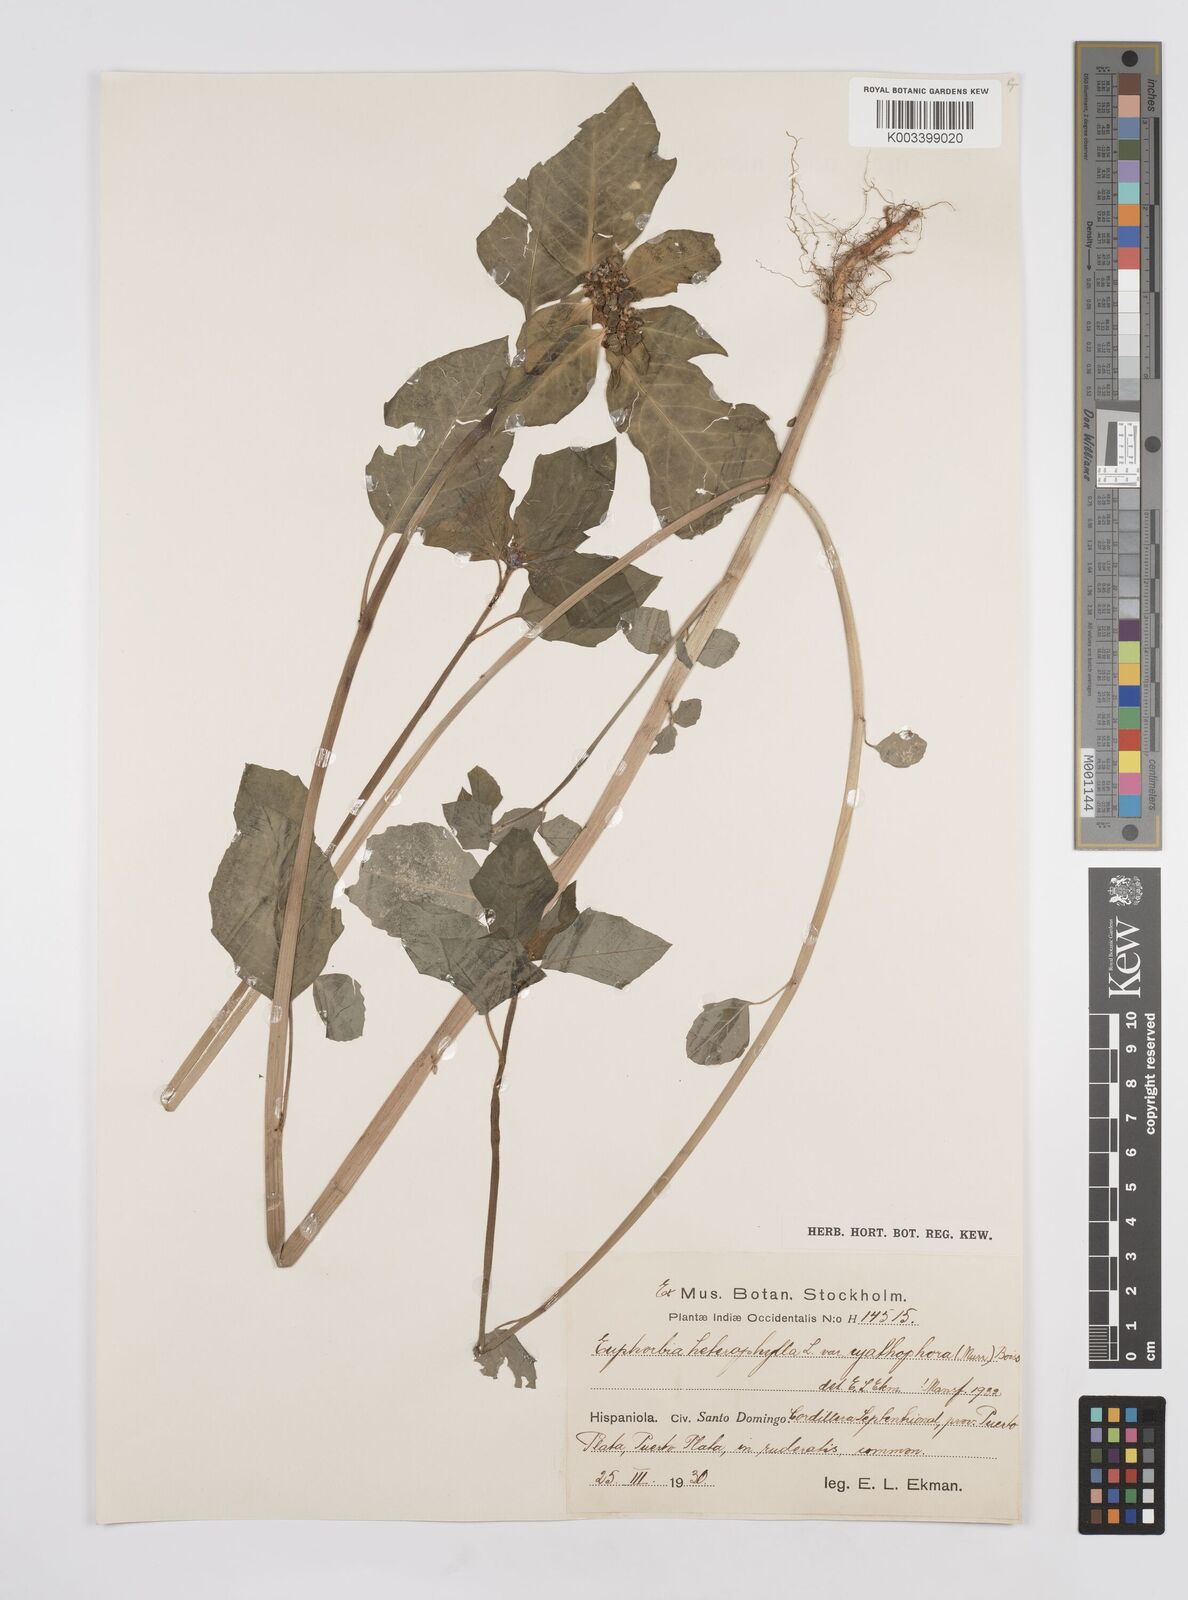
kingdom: Plantae
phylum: Tracheophyta
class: Magnoliopsida
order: Malpighiales
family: Euphorbiaceae
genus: Euphorbia
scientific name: Euphorbia heterophylla
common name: Mexican fireplant
